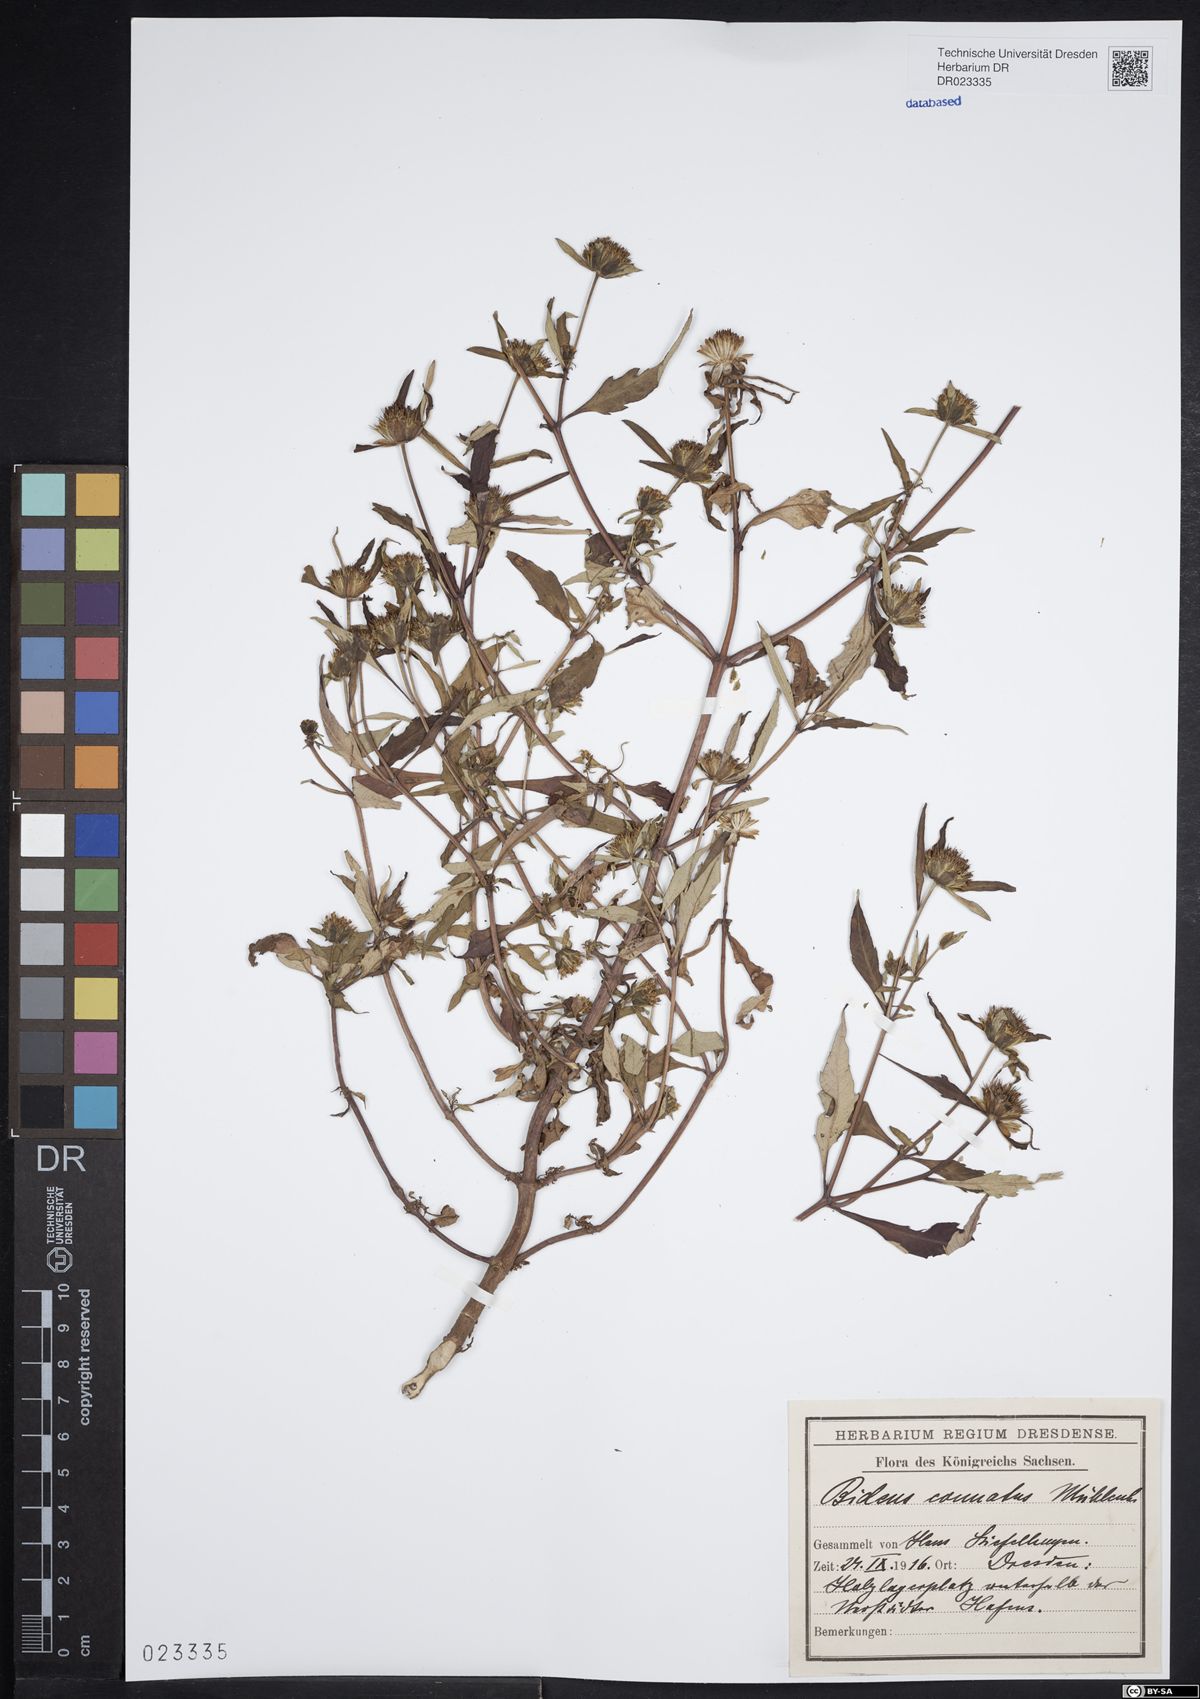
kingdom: Plantae
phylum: Tracheophyta
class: Magnoliopsida
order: Asterales
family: Asteraceae
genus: Bidens
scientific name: Bidens connata
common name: London bur-marigold
